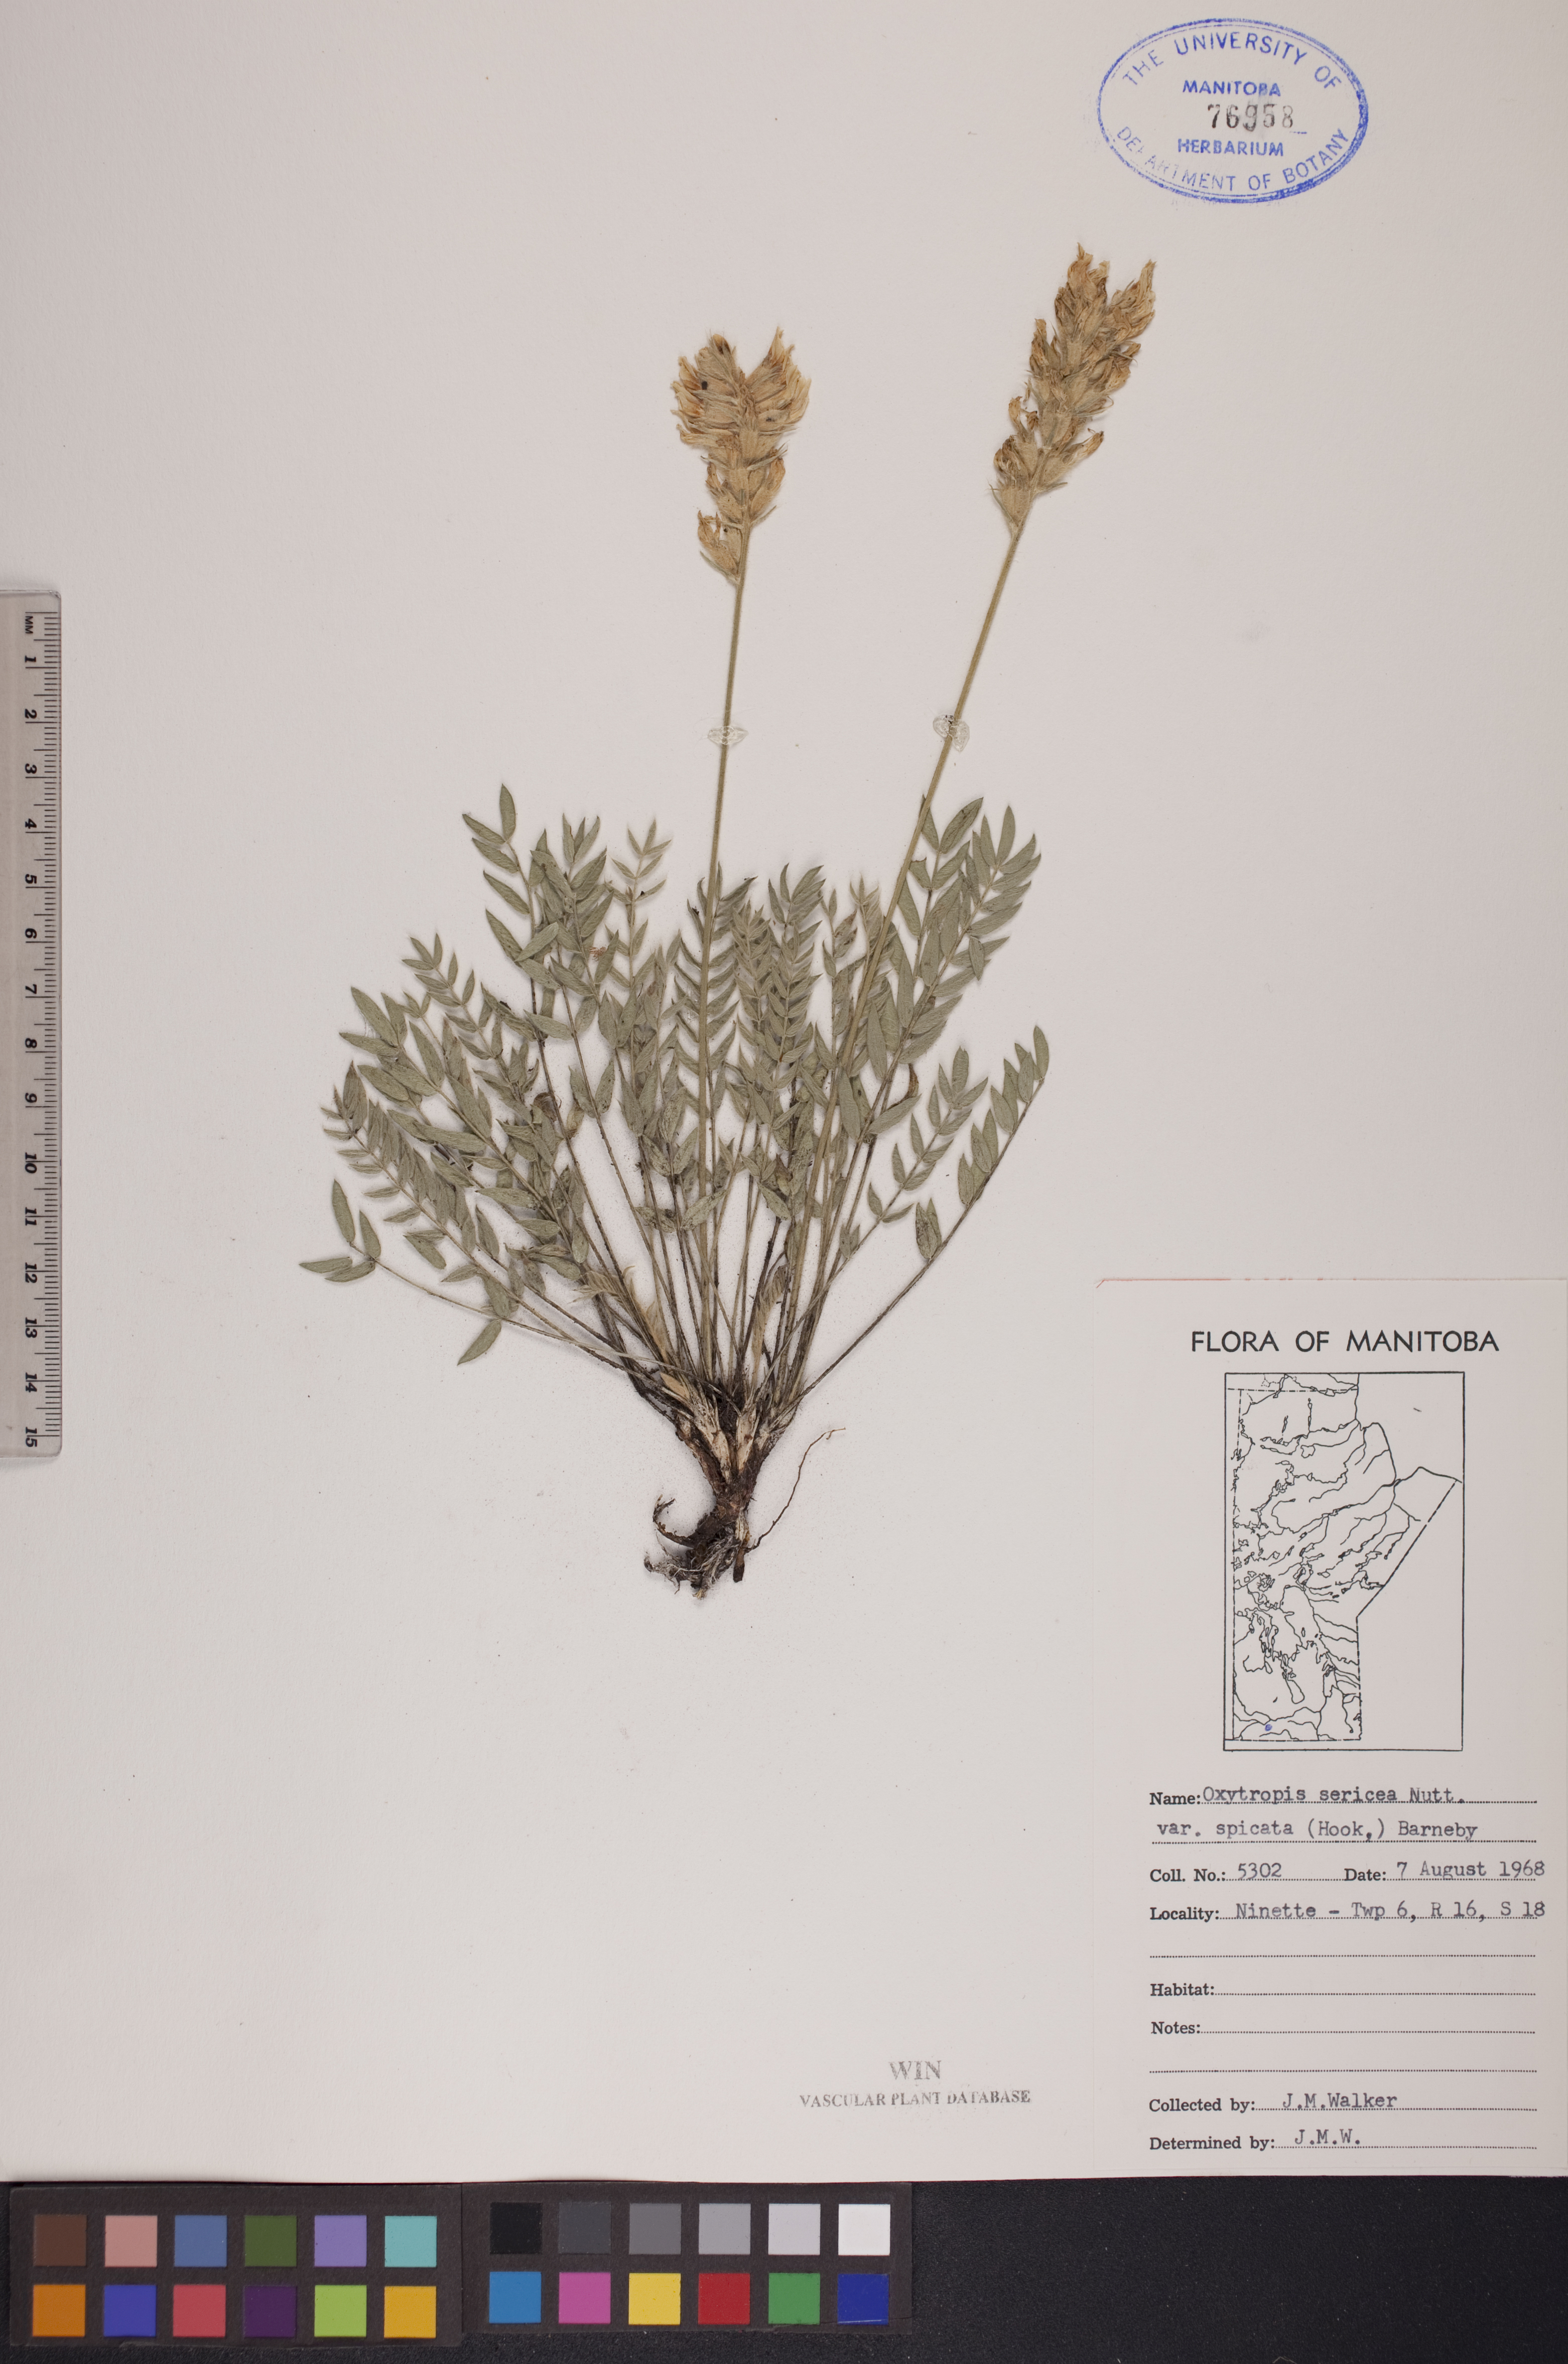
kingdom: Plantae
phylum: Tracheophyta
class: Magnoliopsida
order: Fabales
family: Fabaceae
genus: Oxytropis
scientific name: Oxytropis campestris
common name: Field locoweed
